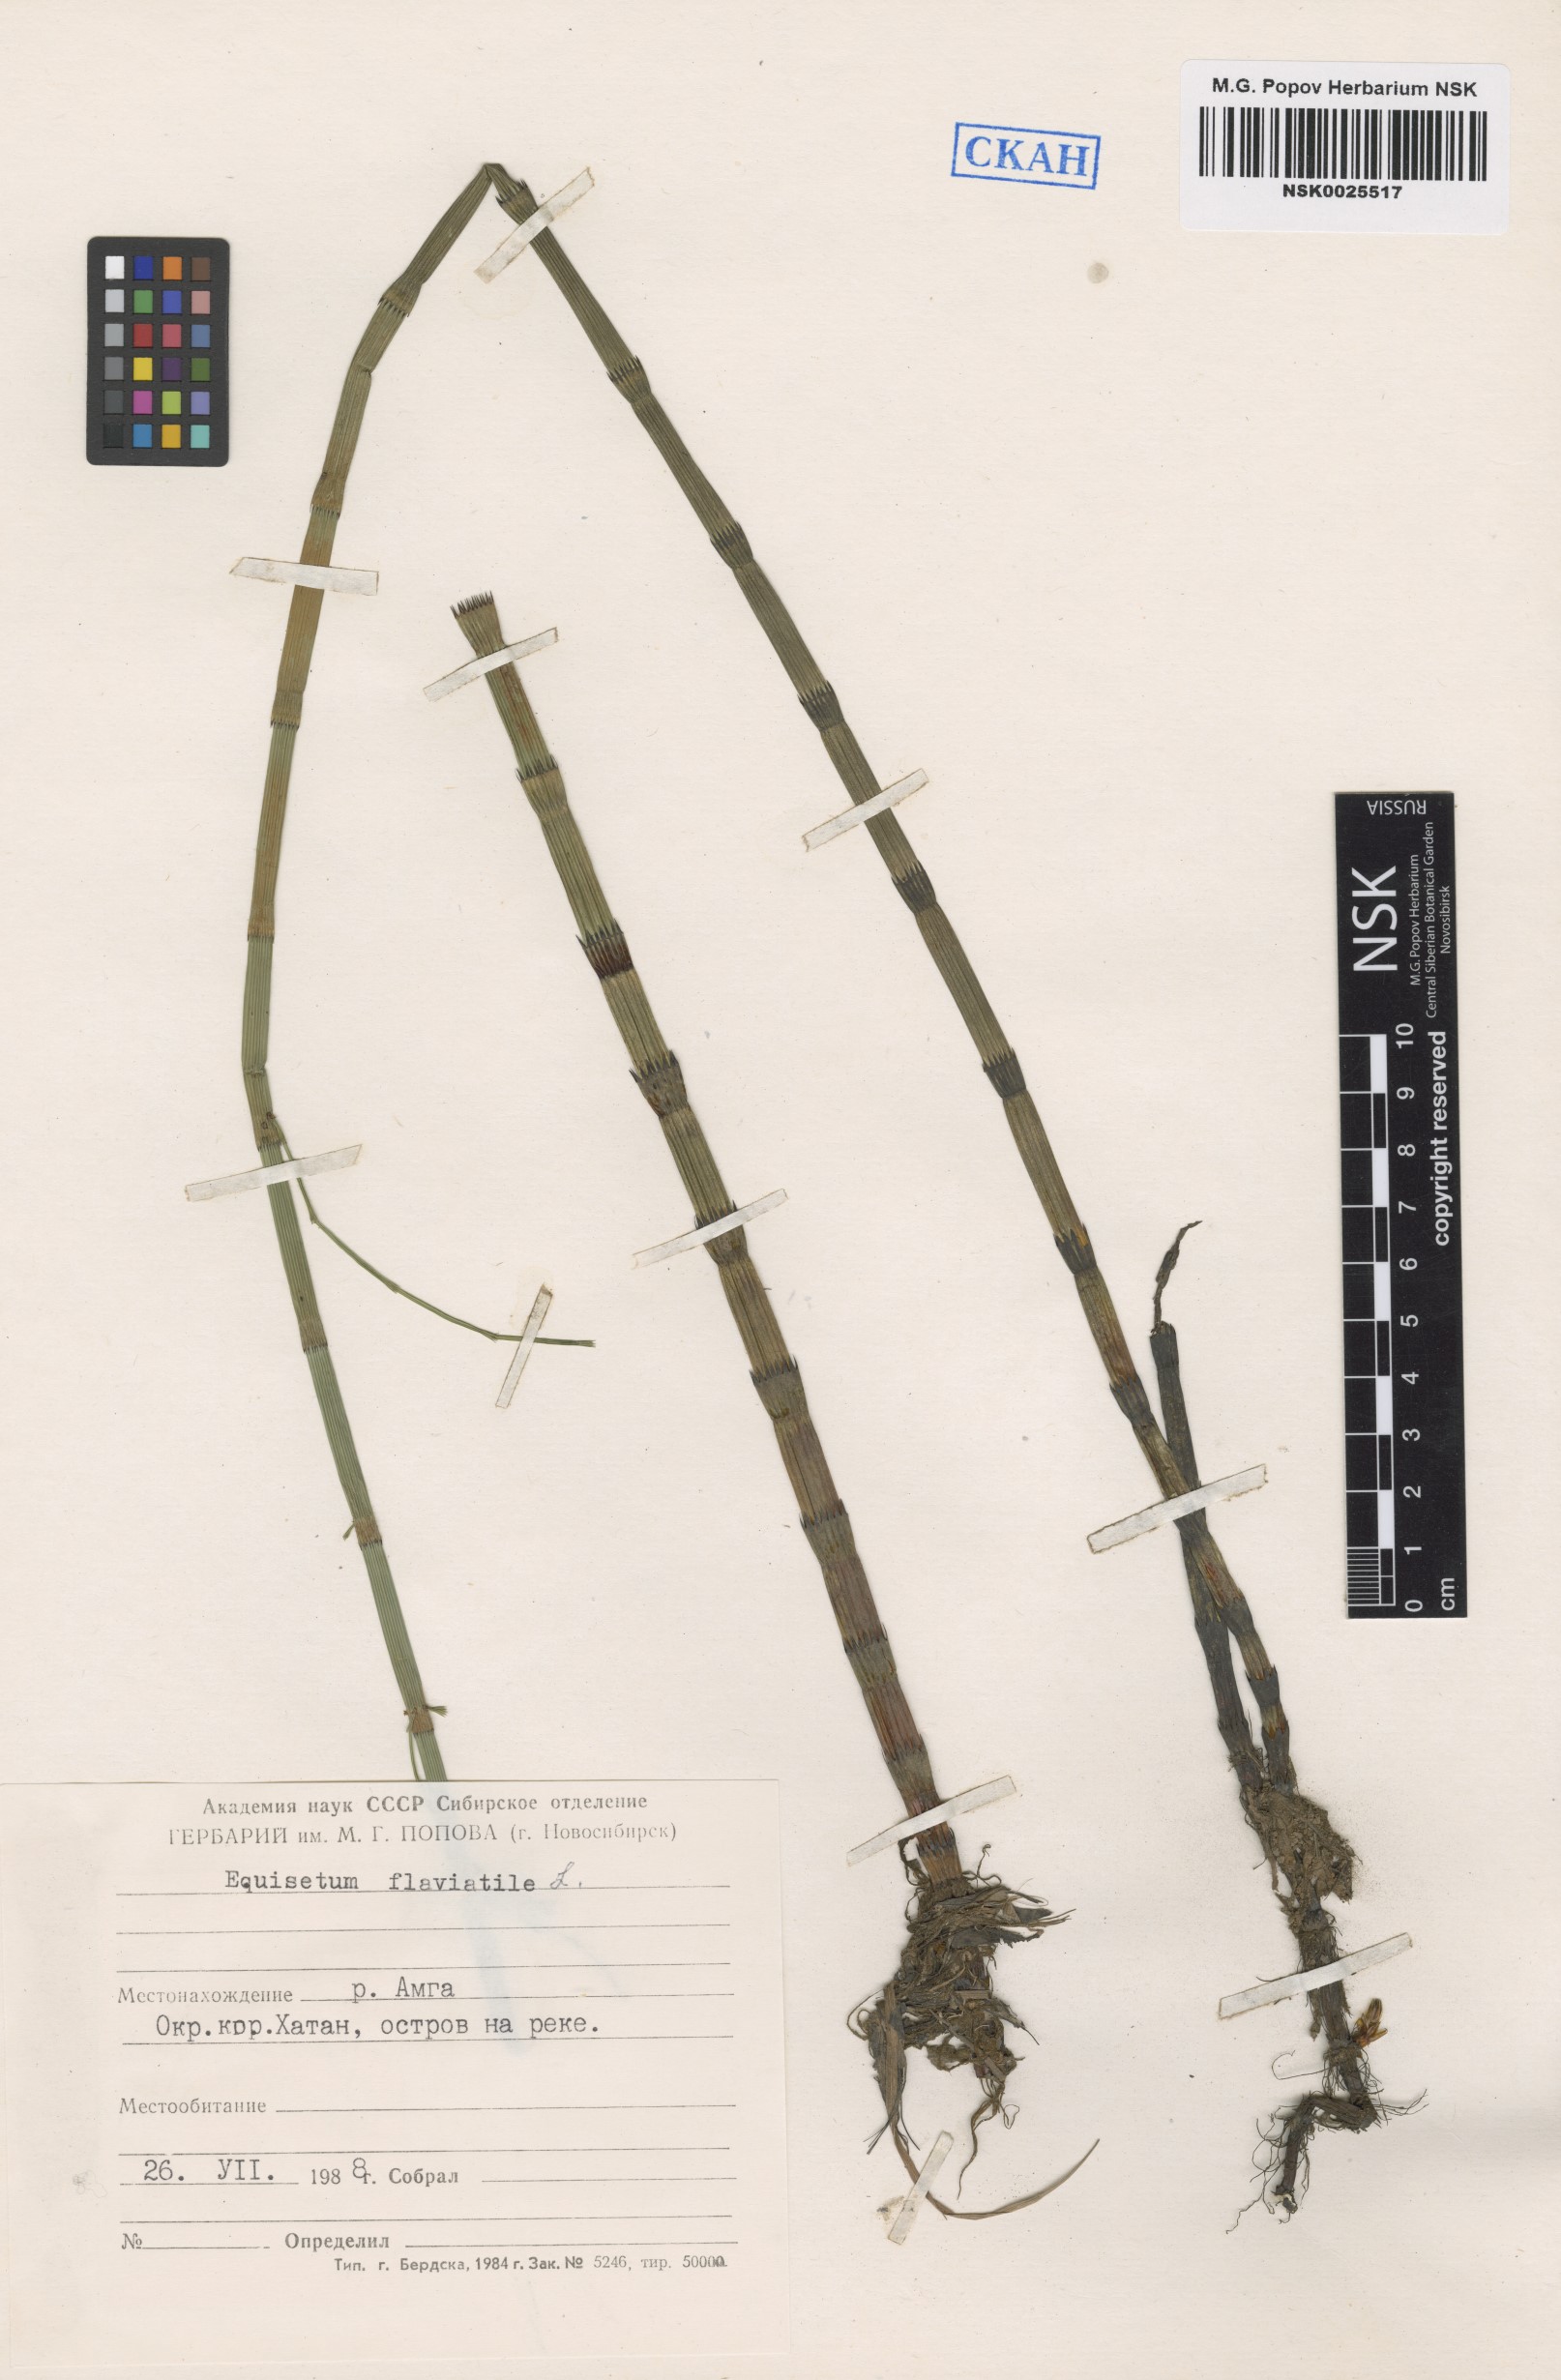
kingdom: Plantae
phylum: Tracheophyta
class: Polypodiopsida
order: Equisetales
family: Equisetaceae
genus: Equisetum
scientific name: Equisetum fluviatile
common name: Water horsetail
